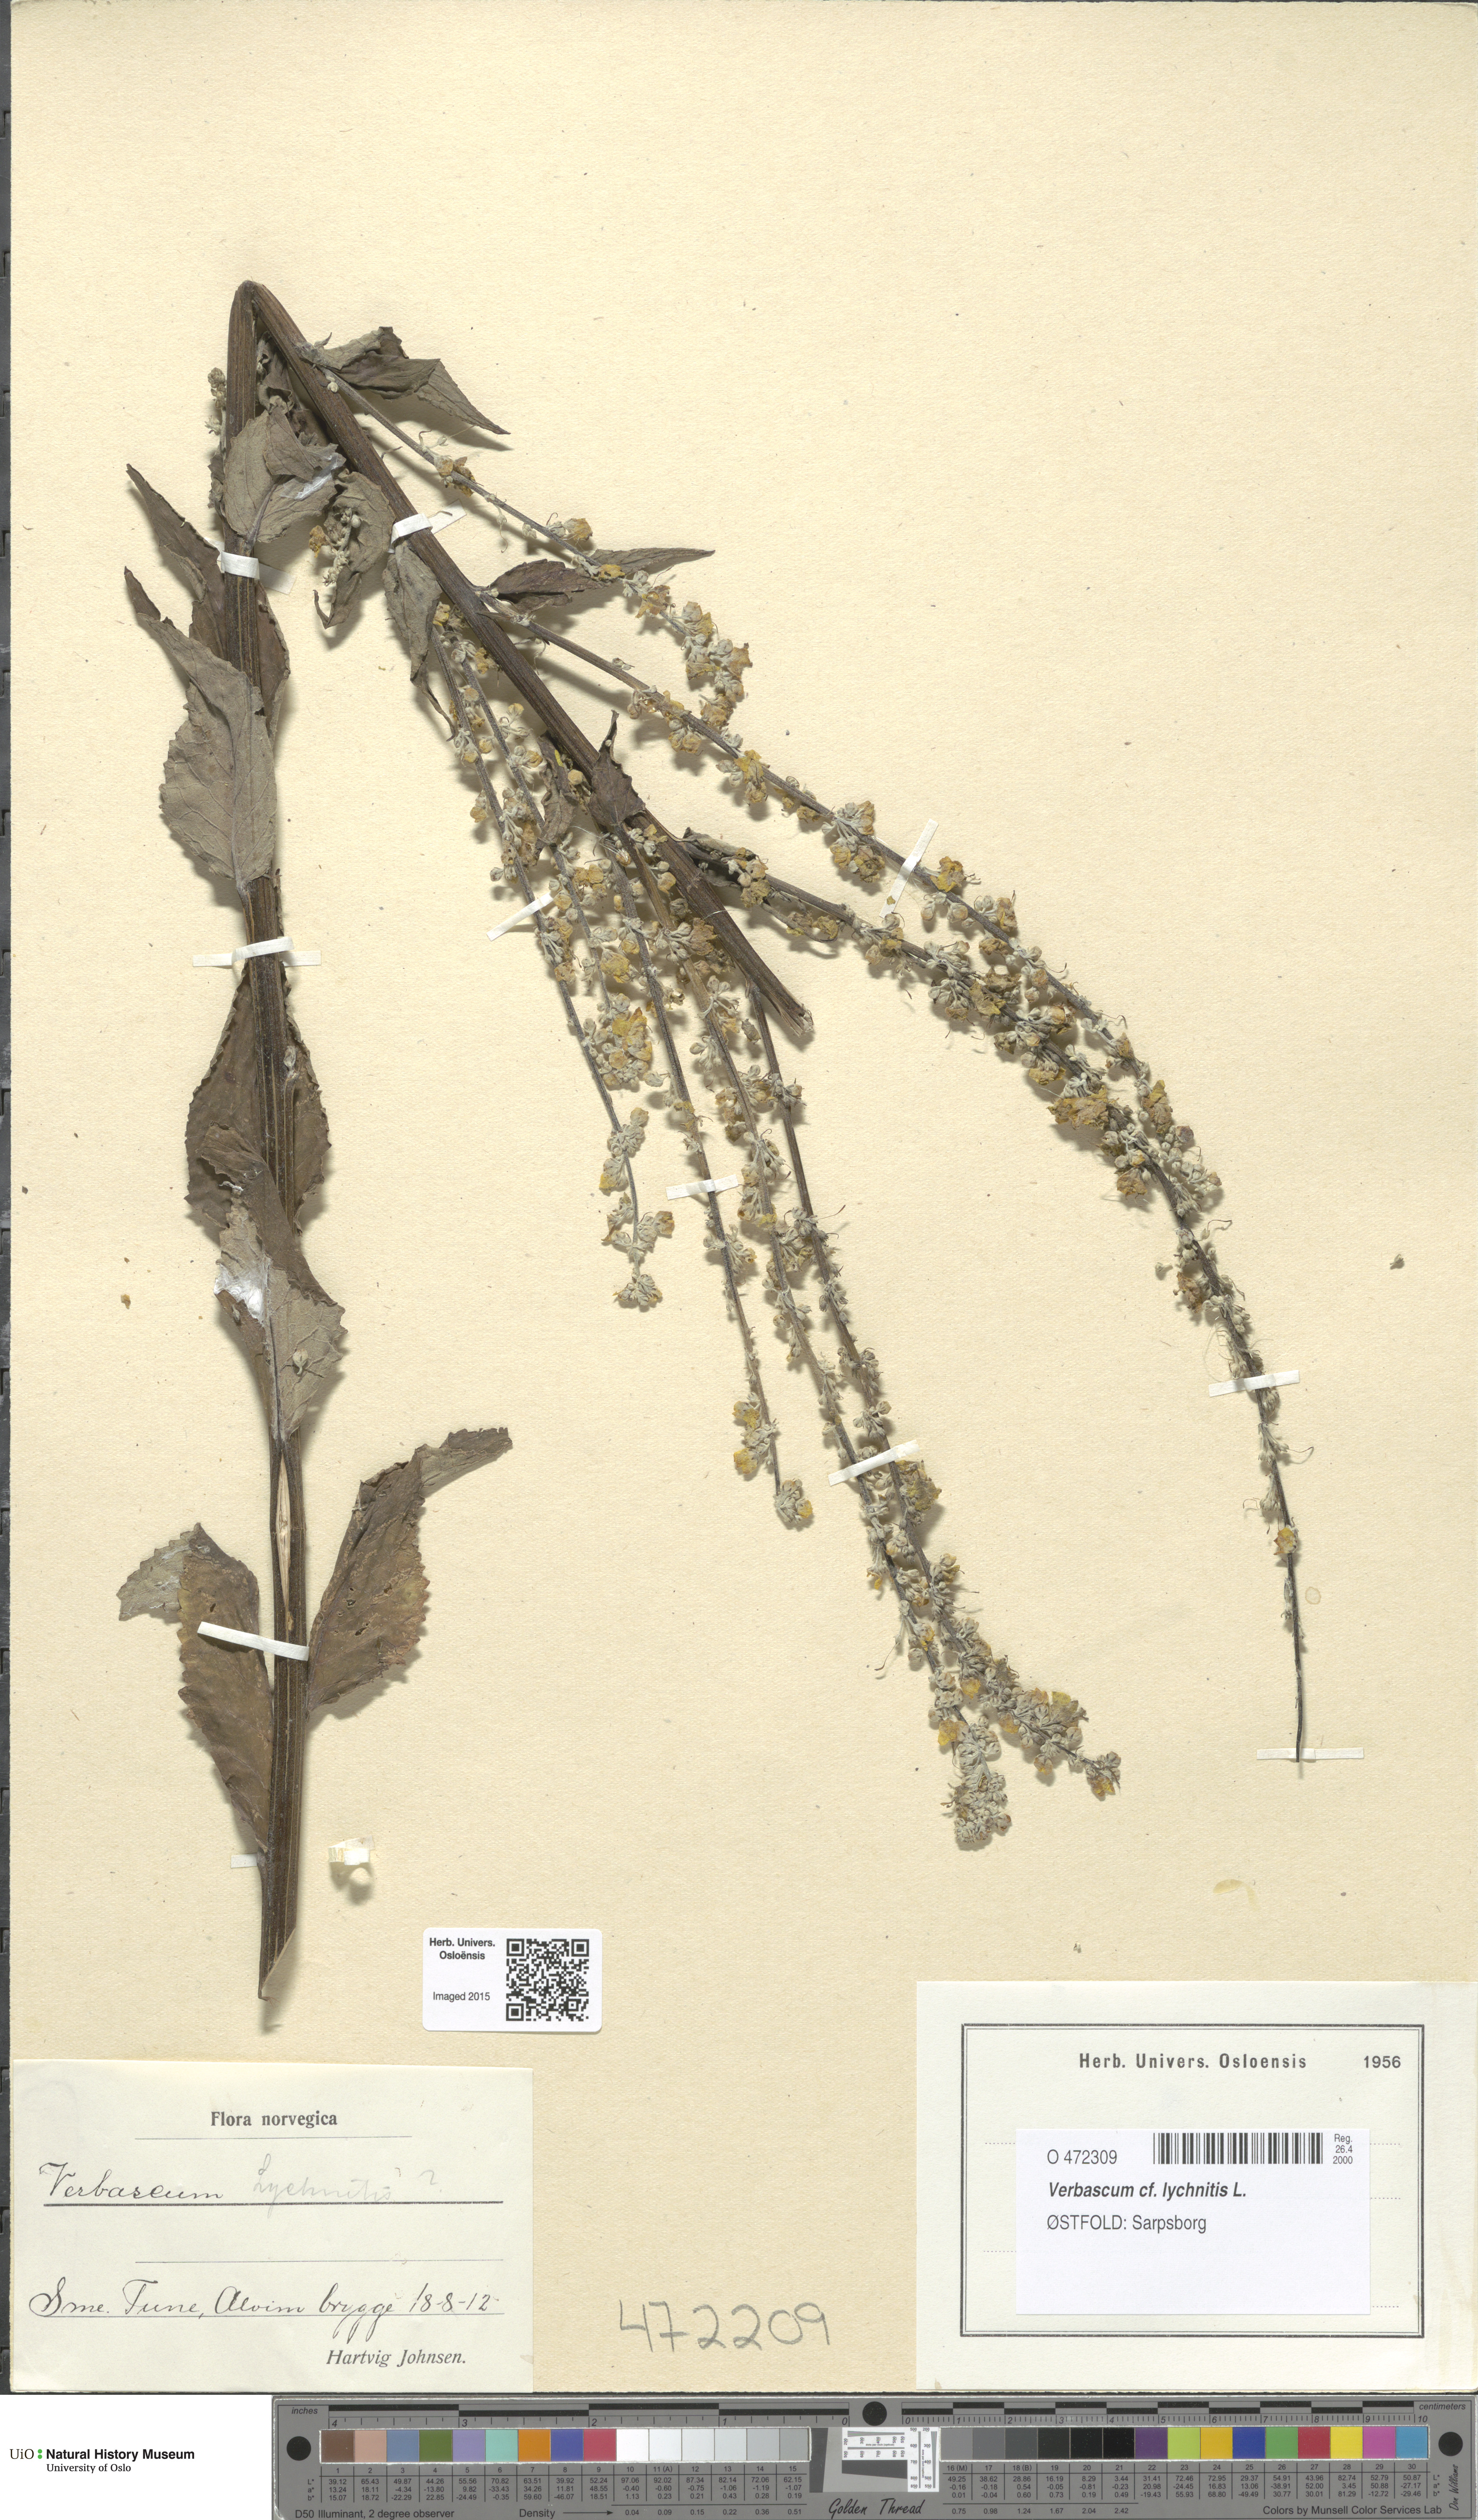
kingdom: Plantae
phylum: Tracheophyta
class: Magnoliopsida
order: Lamiales
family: Scrophulariaceae
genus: Verbascum
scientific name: Verbascum lychnitis
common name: White mullein
